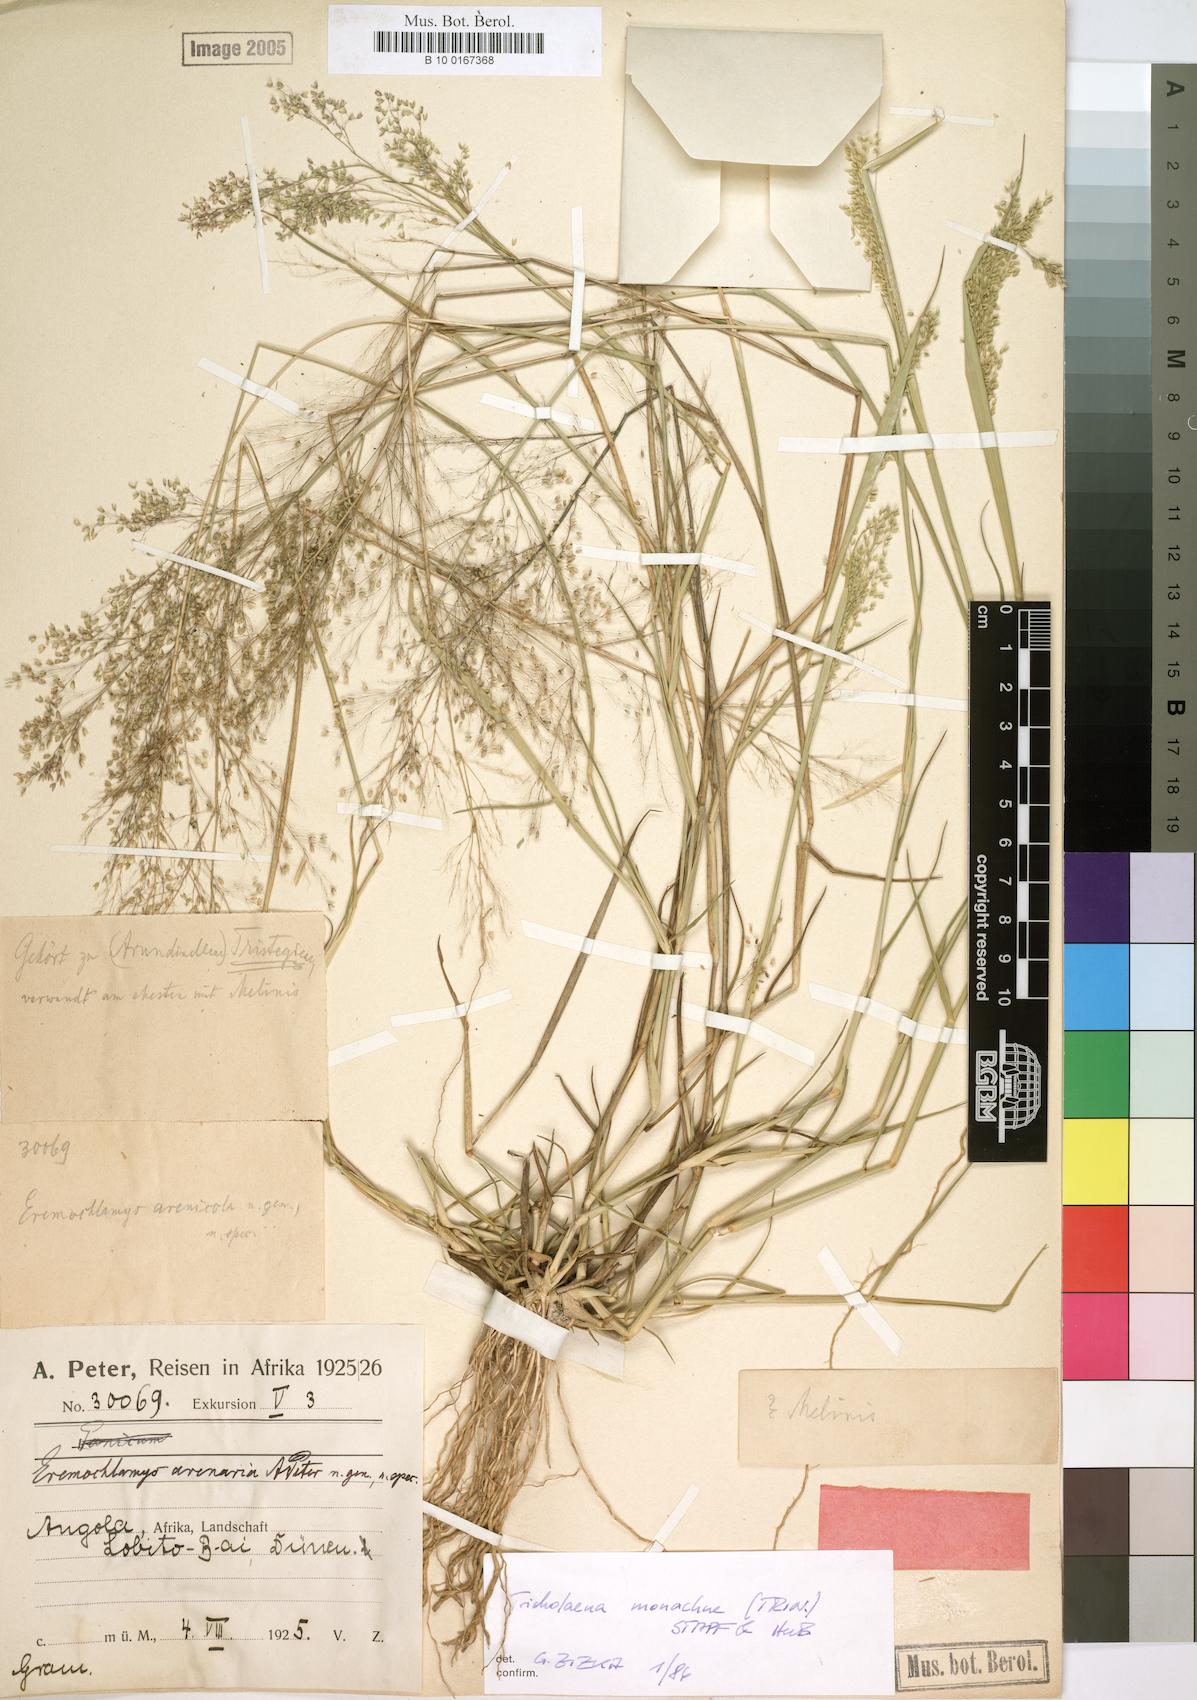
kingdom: Plantae
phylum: Tracheophyta
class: Liliopsida
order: Poales
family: Poaceae
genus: Tricholaena
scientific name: Tricholaena monachne
